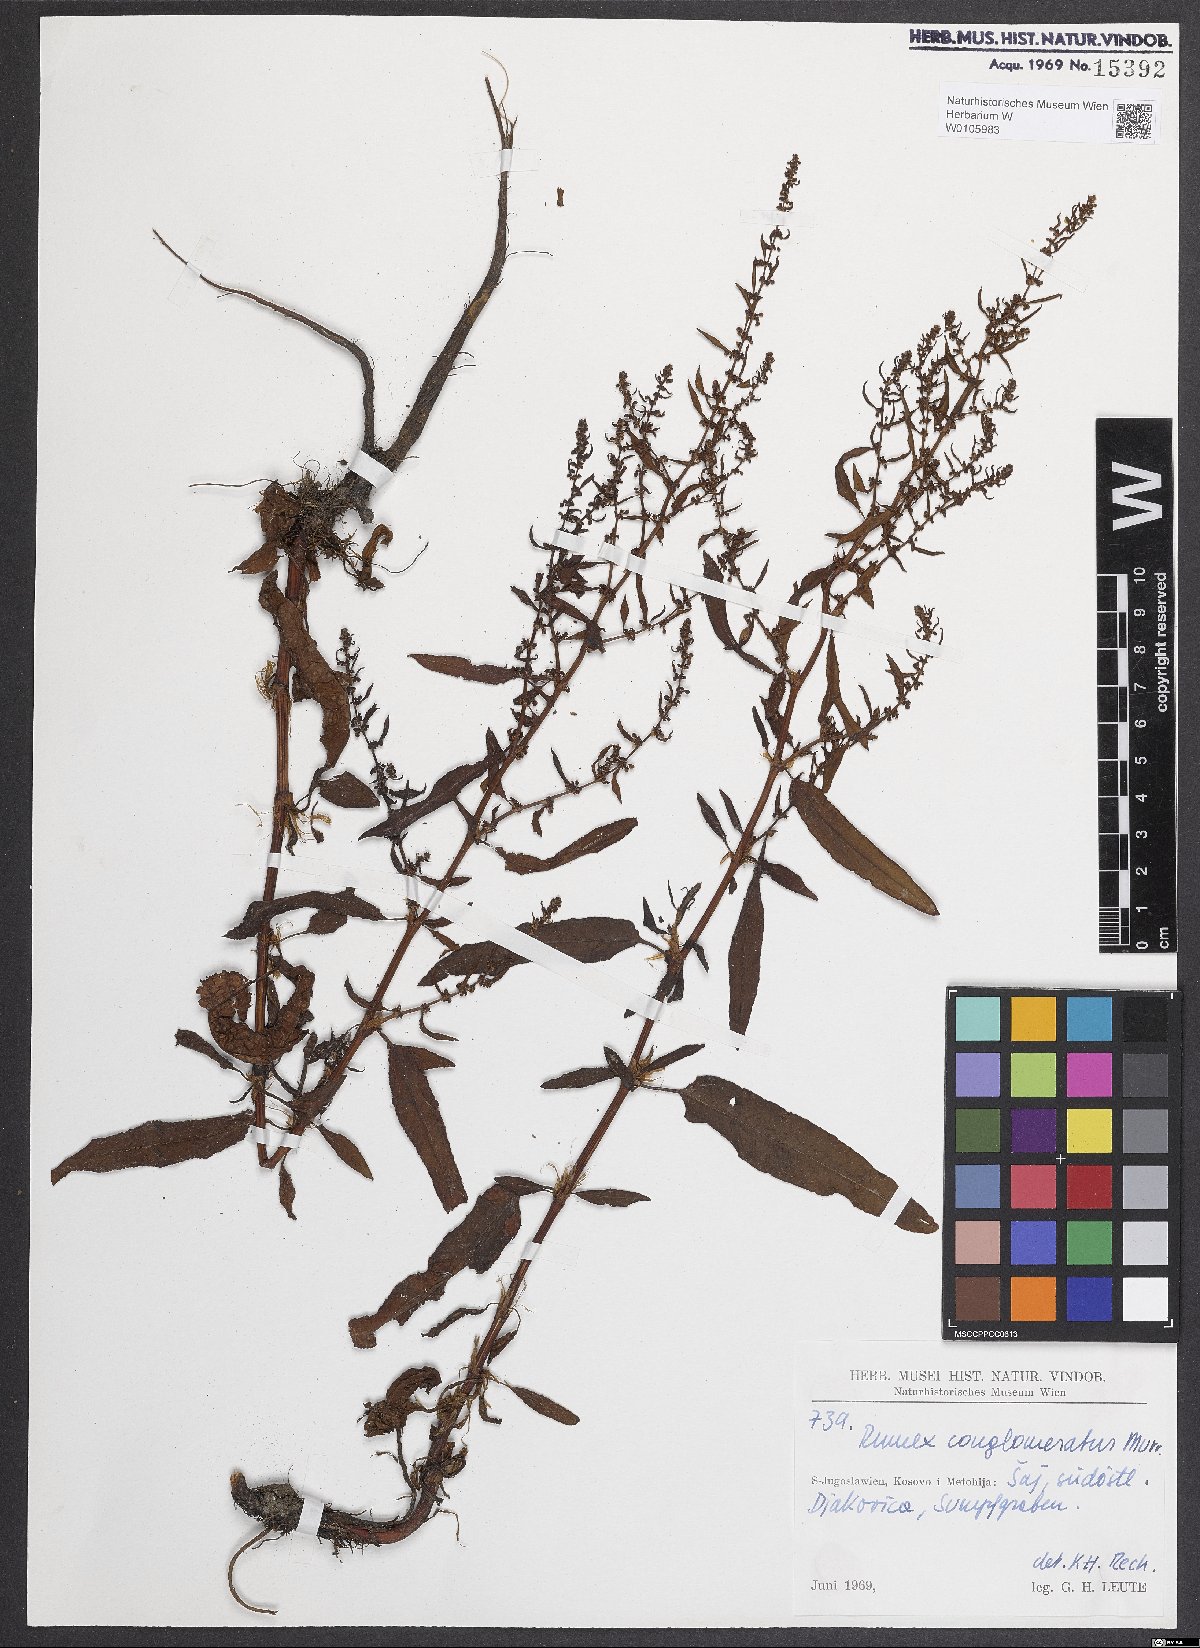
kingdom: Plantae
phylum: Tracheophyta
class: Magnoliopsida
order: Caryophyllales
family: Polygonaceae
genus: Rumex
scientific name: Rumex conglomeratus
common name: Clustered dock
